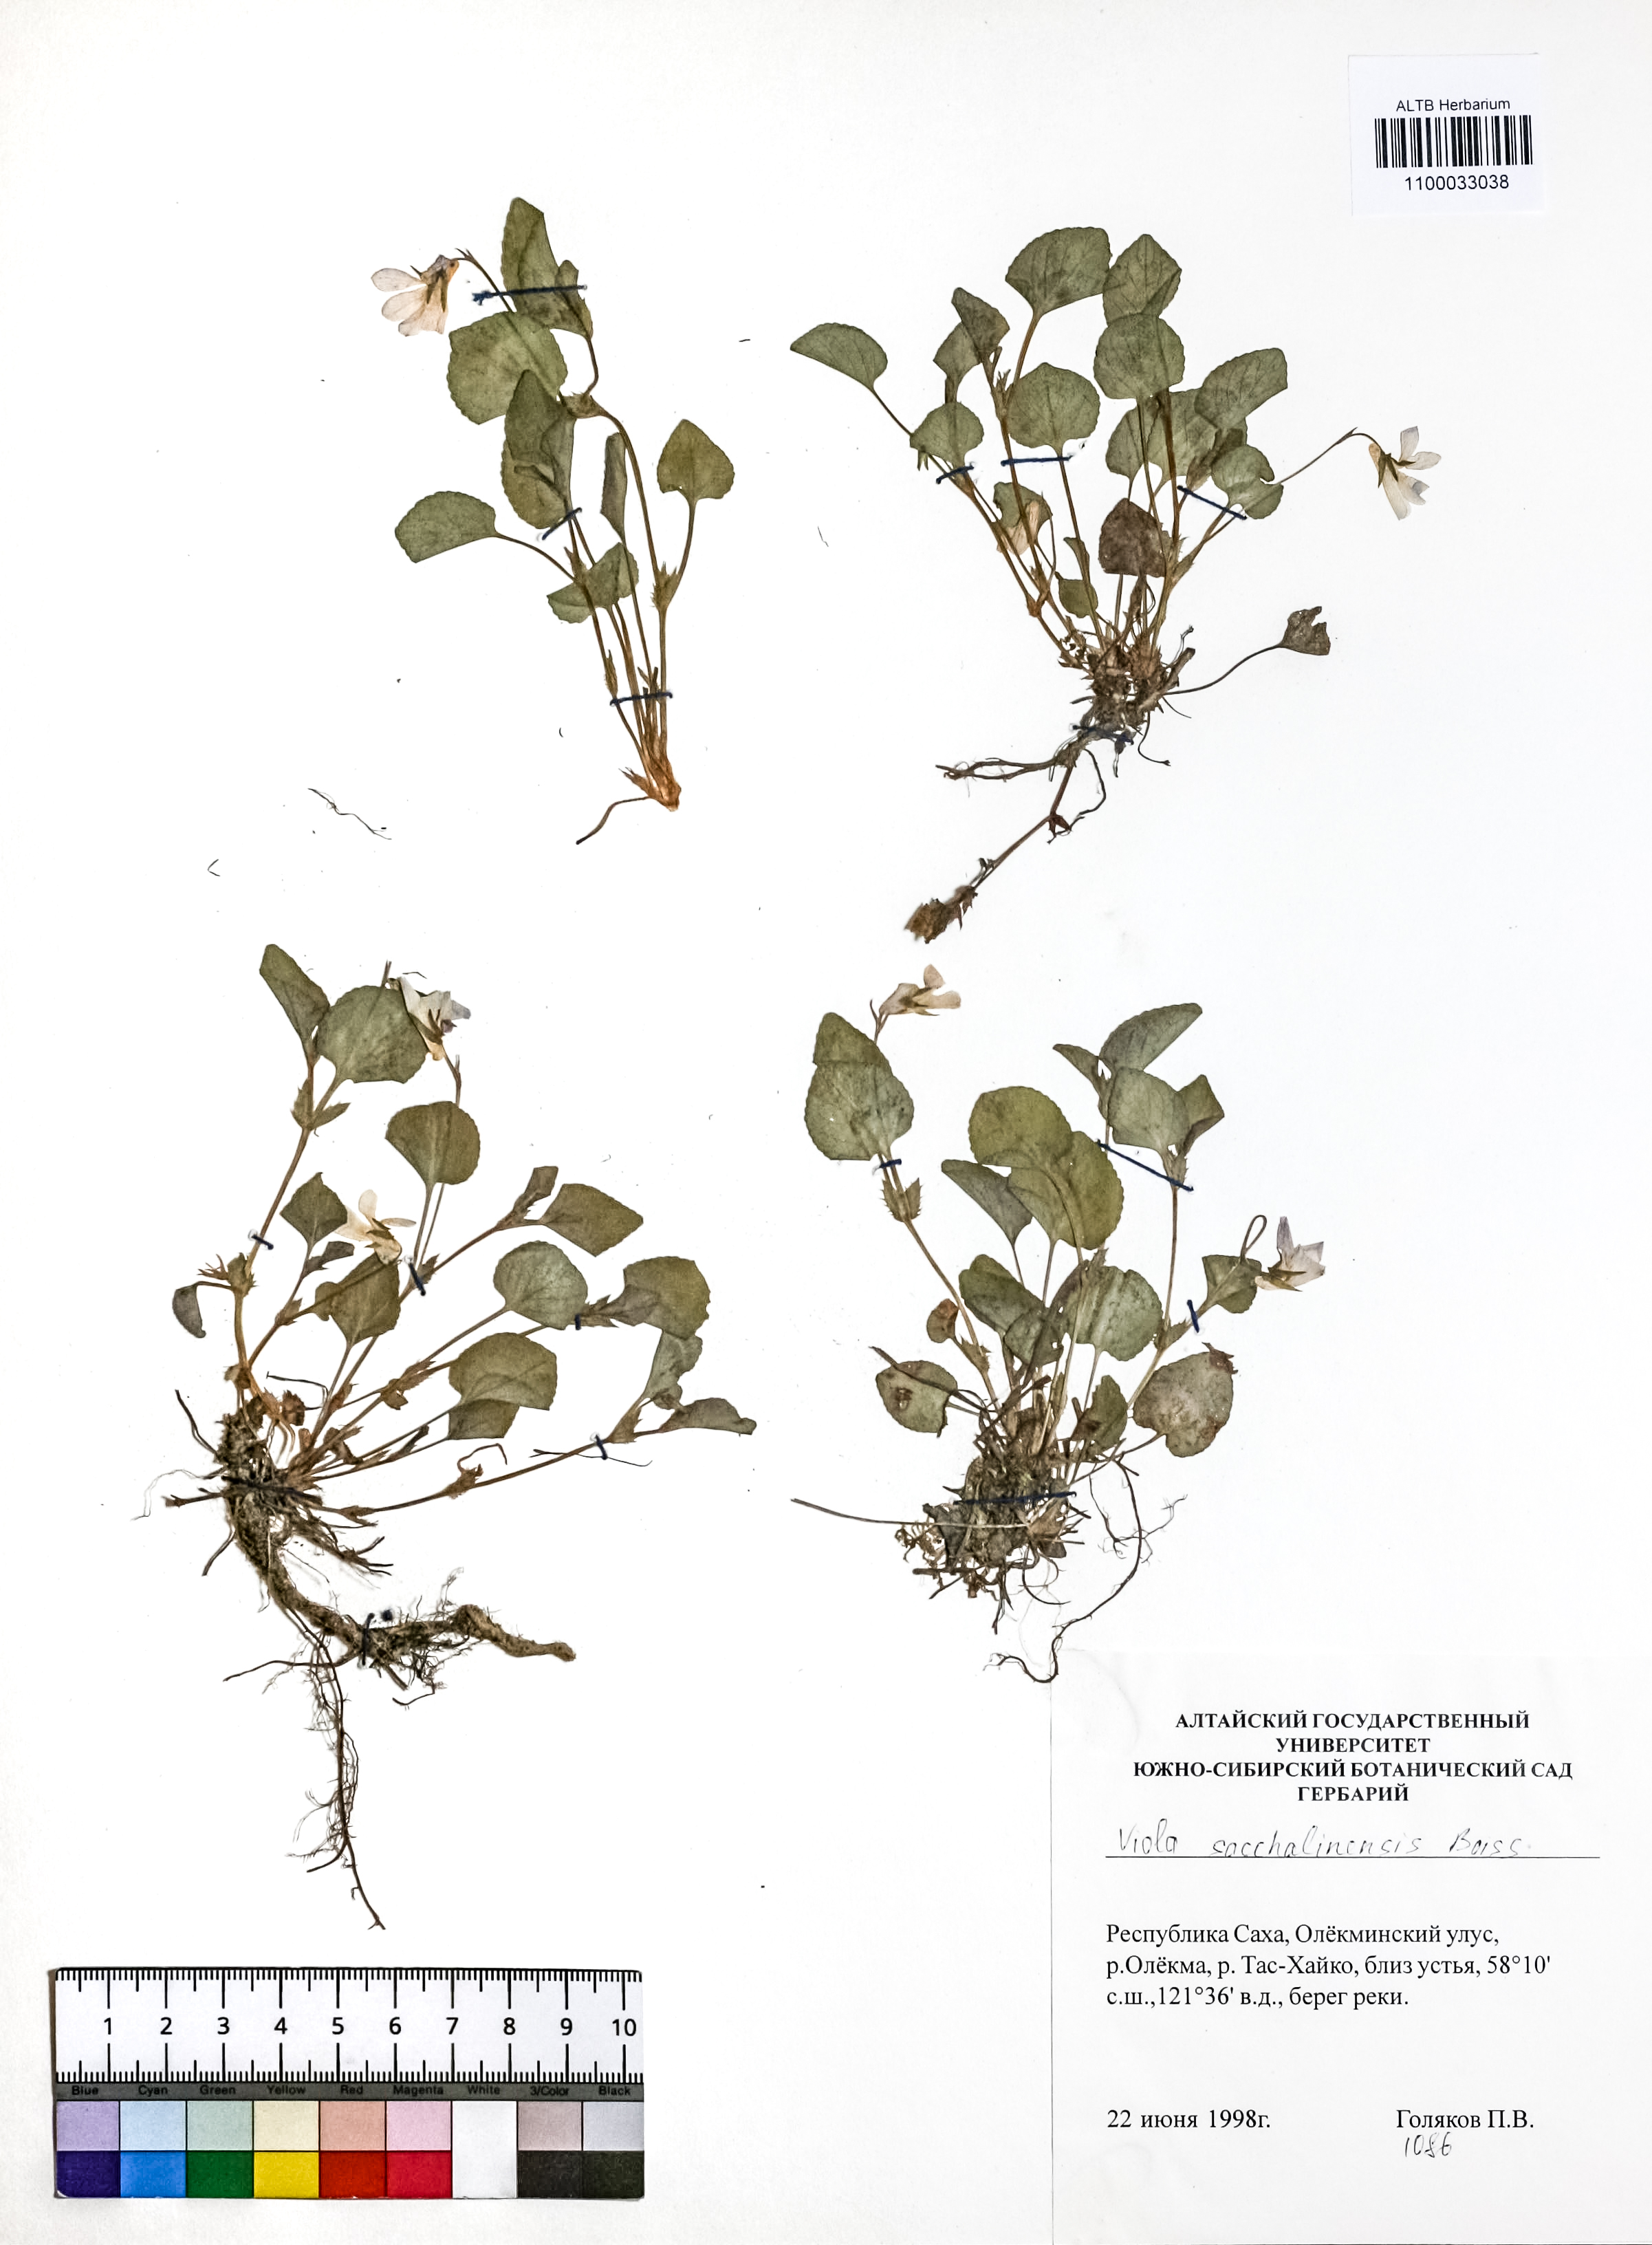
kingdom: Plantae
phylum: Tracheophyta
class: Magnoliopsida
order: Malpighiales
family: Violaceae
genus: Viola
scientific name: Viola sacchalinensis
